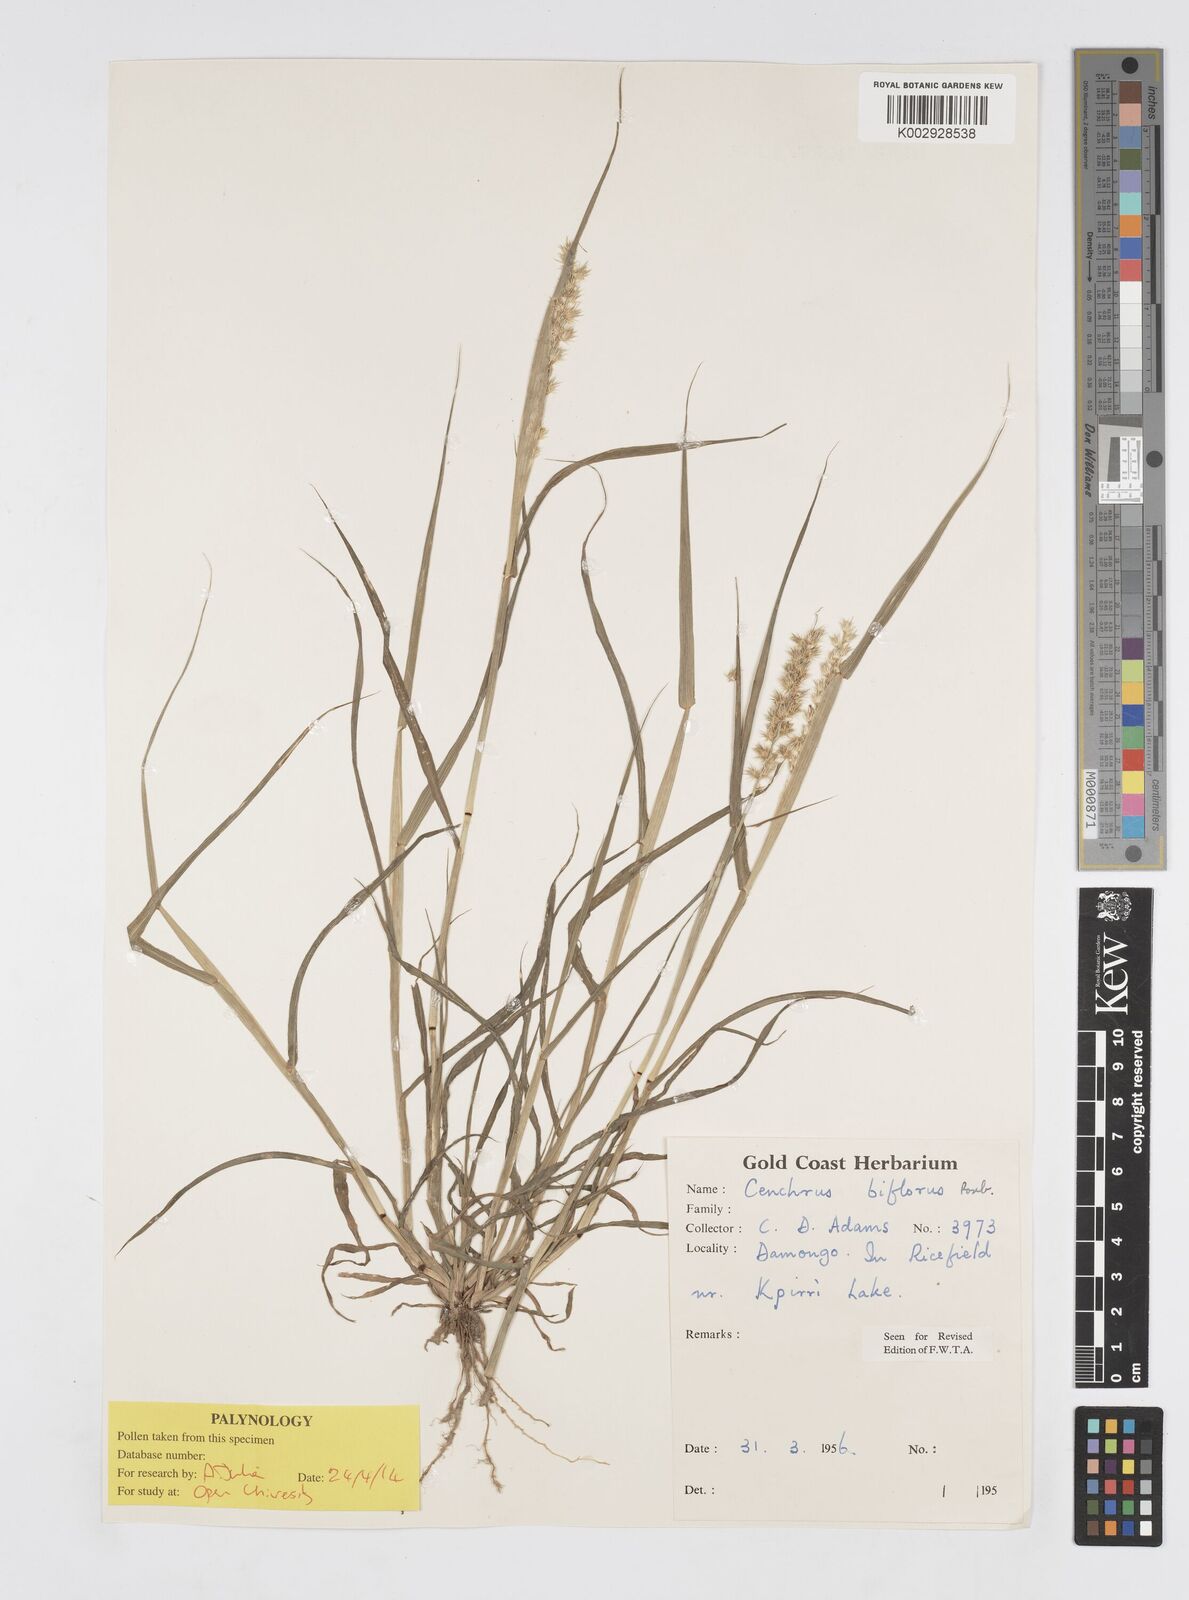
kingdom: Plantae
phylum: Tracheophyta
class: Liliopsida
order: Poales
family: Poaceae
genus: Cenchrus
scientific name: Cenchrus biflorus
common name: Indian sandbur
